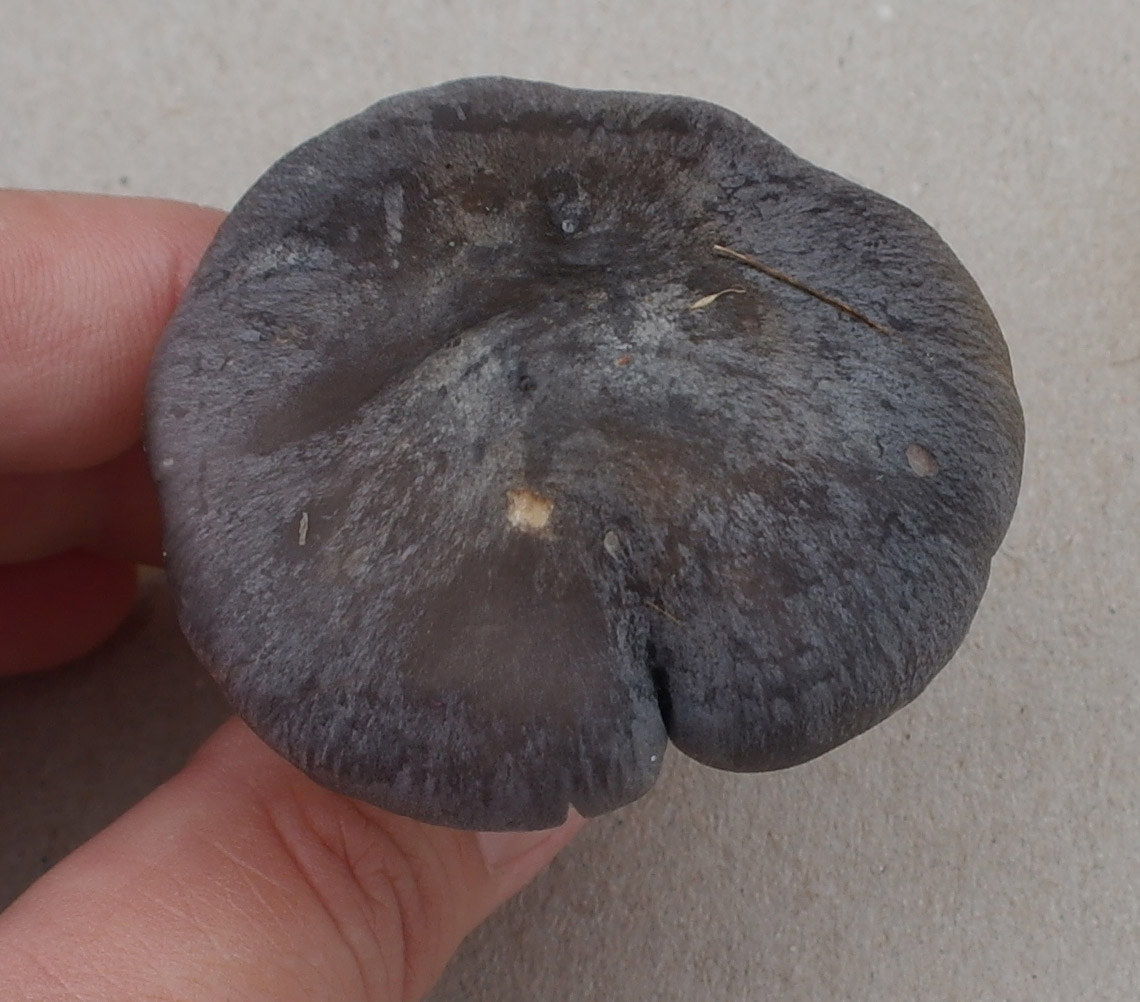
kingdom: Fungi
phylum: Basidiomycota
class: Agaricomycetes
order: Agaricales
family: Entolomataceae
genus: Entoloma
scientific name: Entoloma
